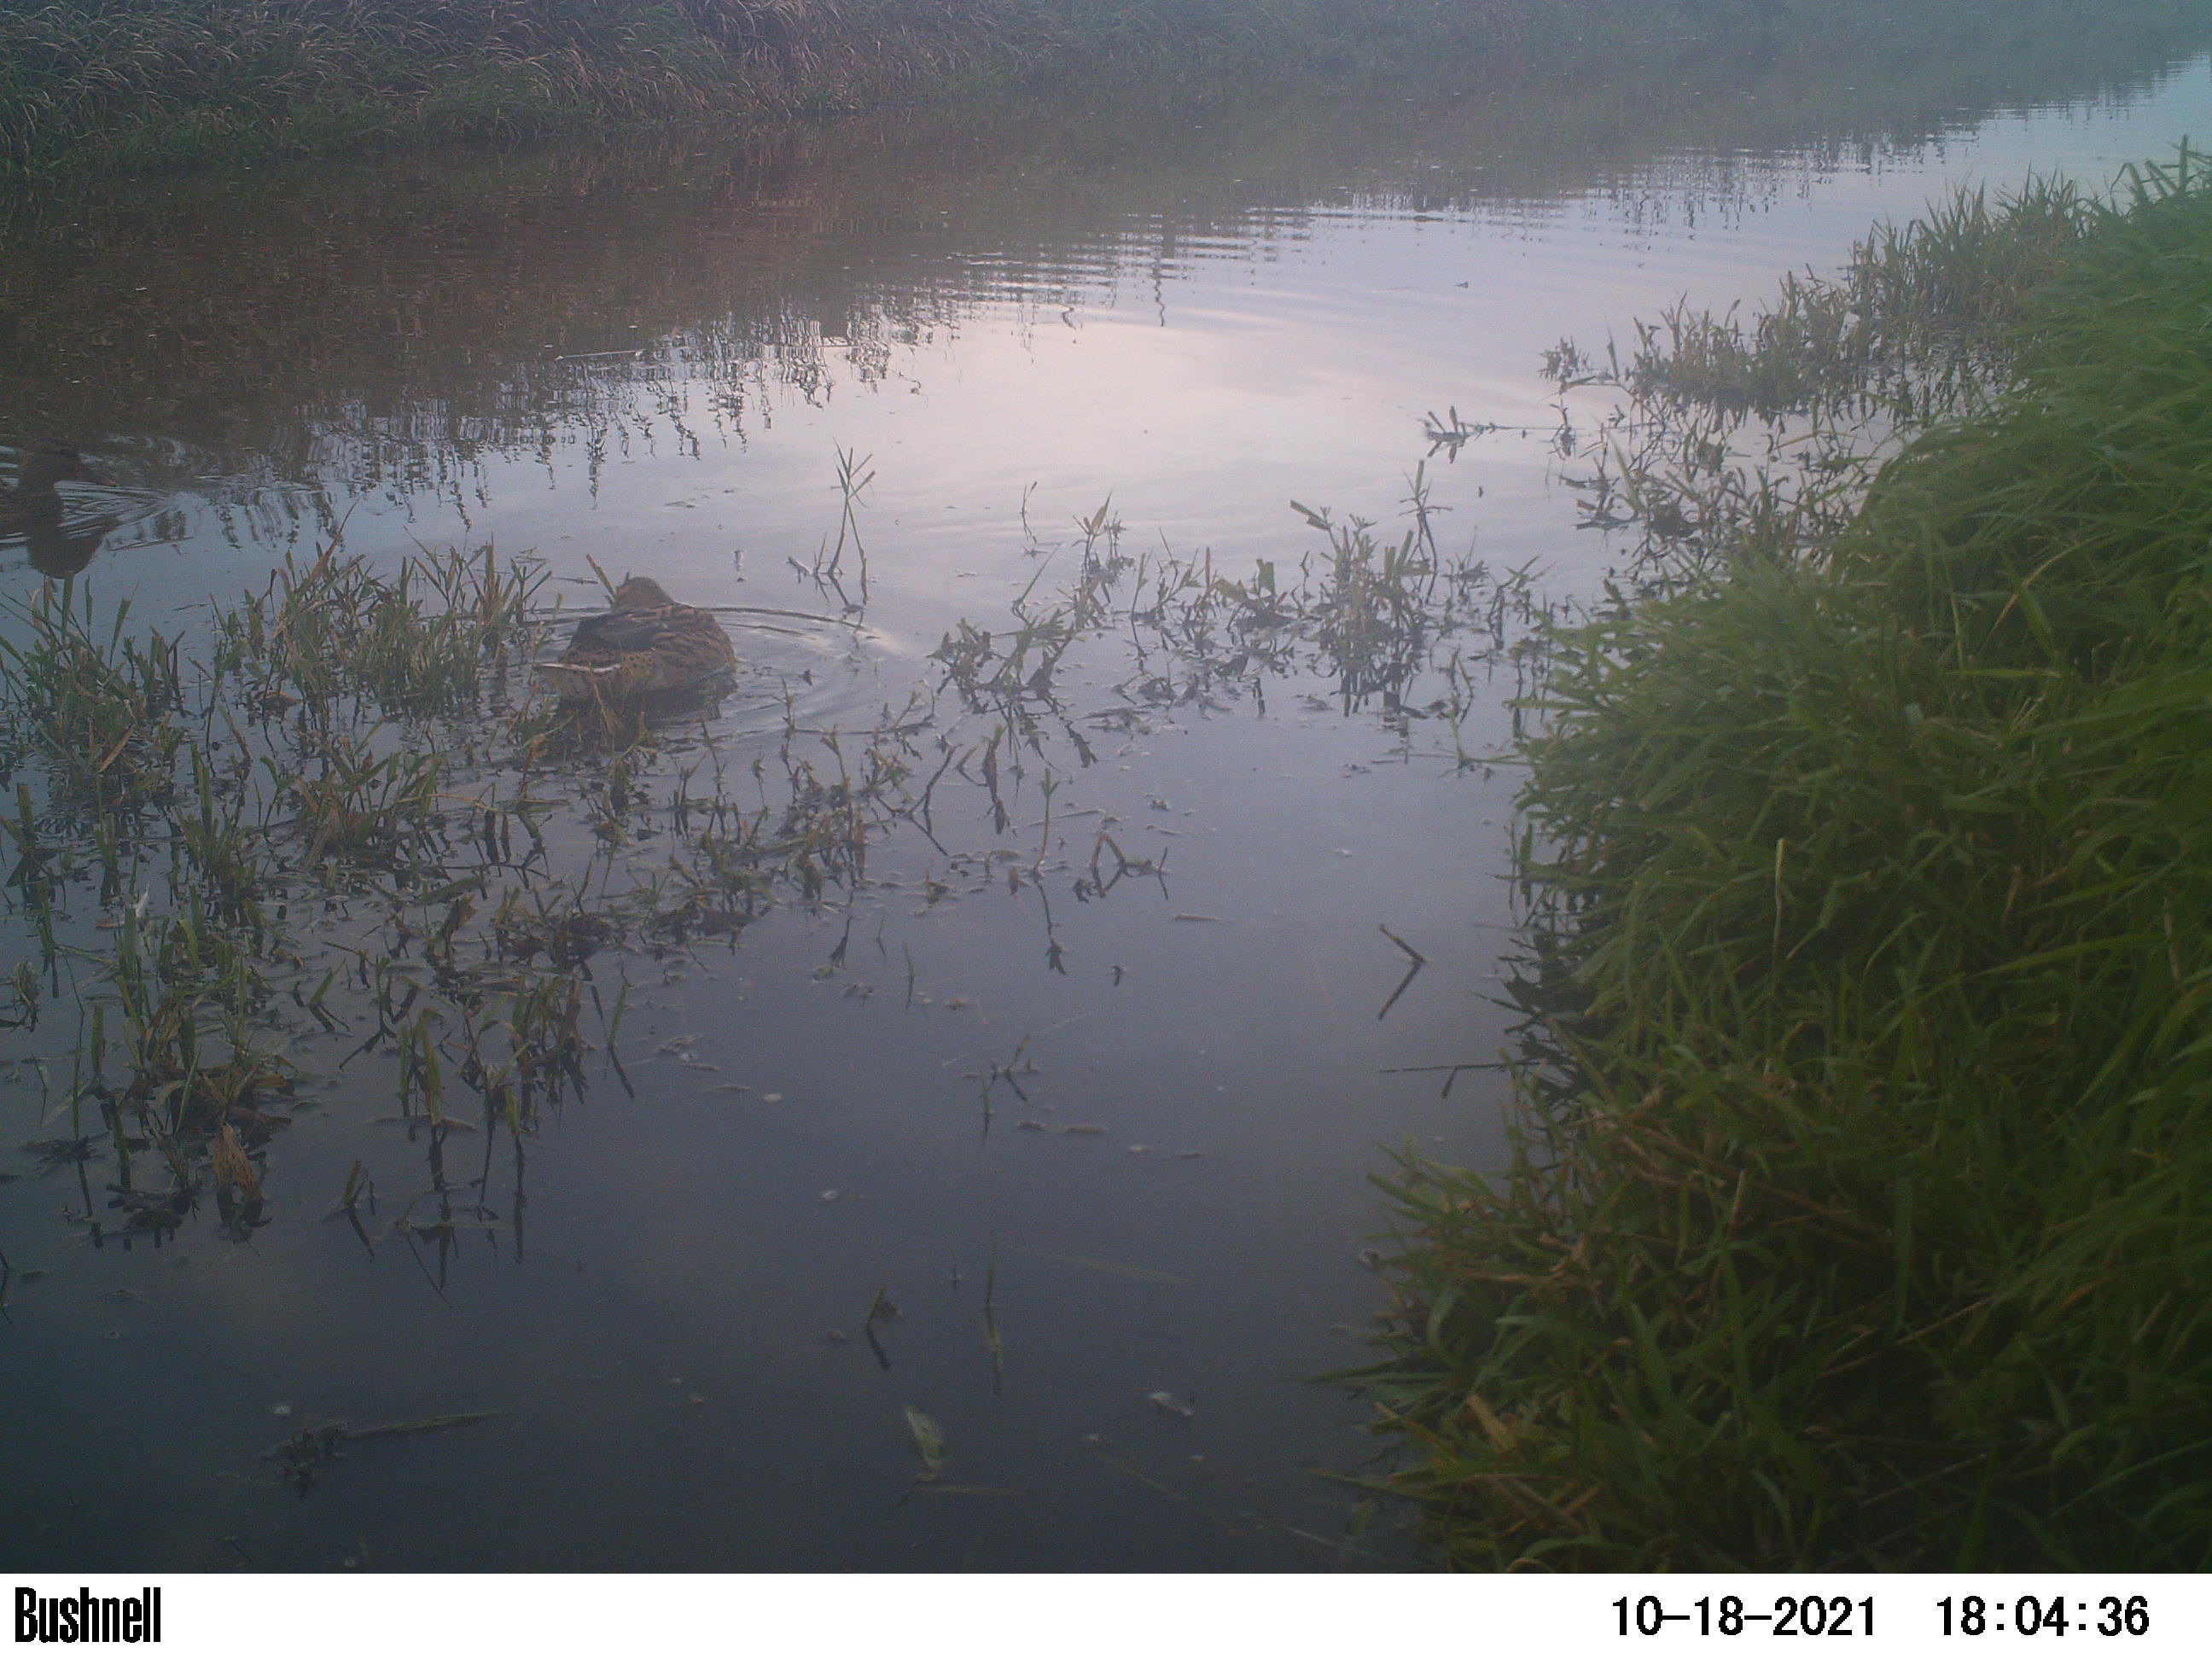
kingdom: Animalia
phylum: Chordata
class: Aves
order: Anseriformes
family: Anatidae
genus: Anas
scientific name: Anas
